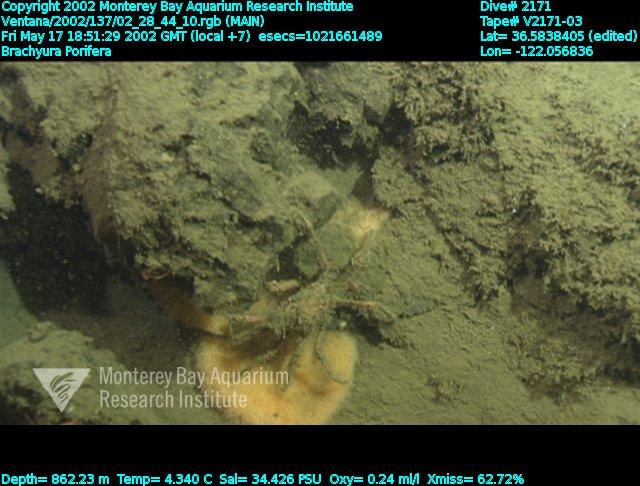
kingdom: Animalia
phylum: Porifera
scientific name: Porifera
